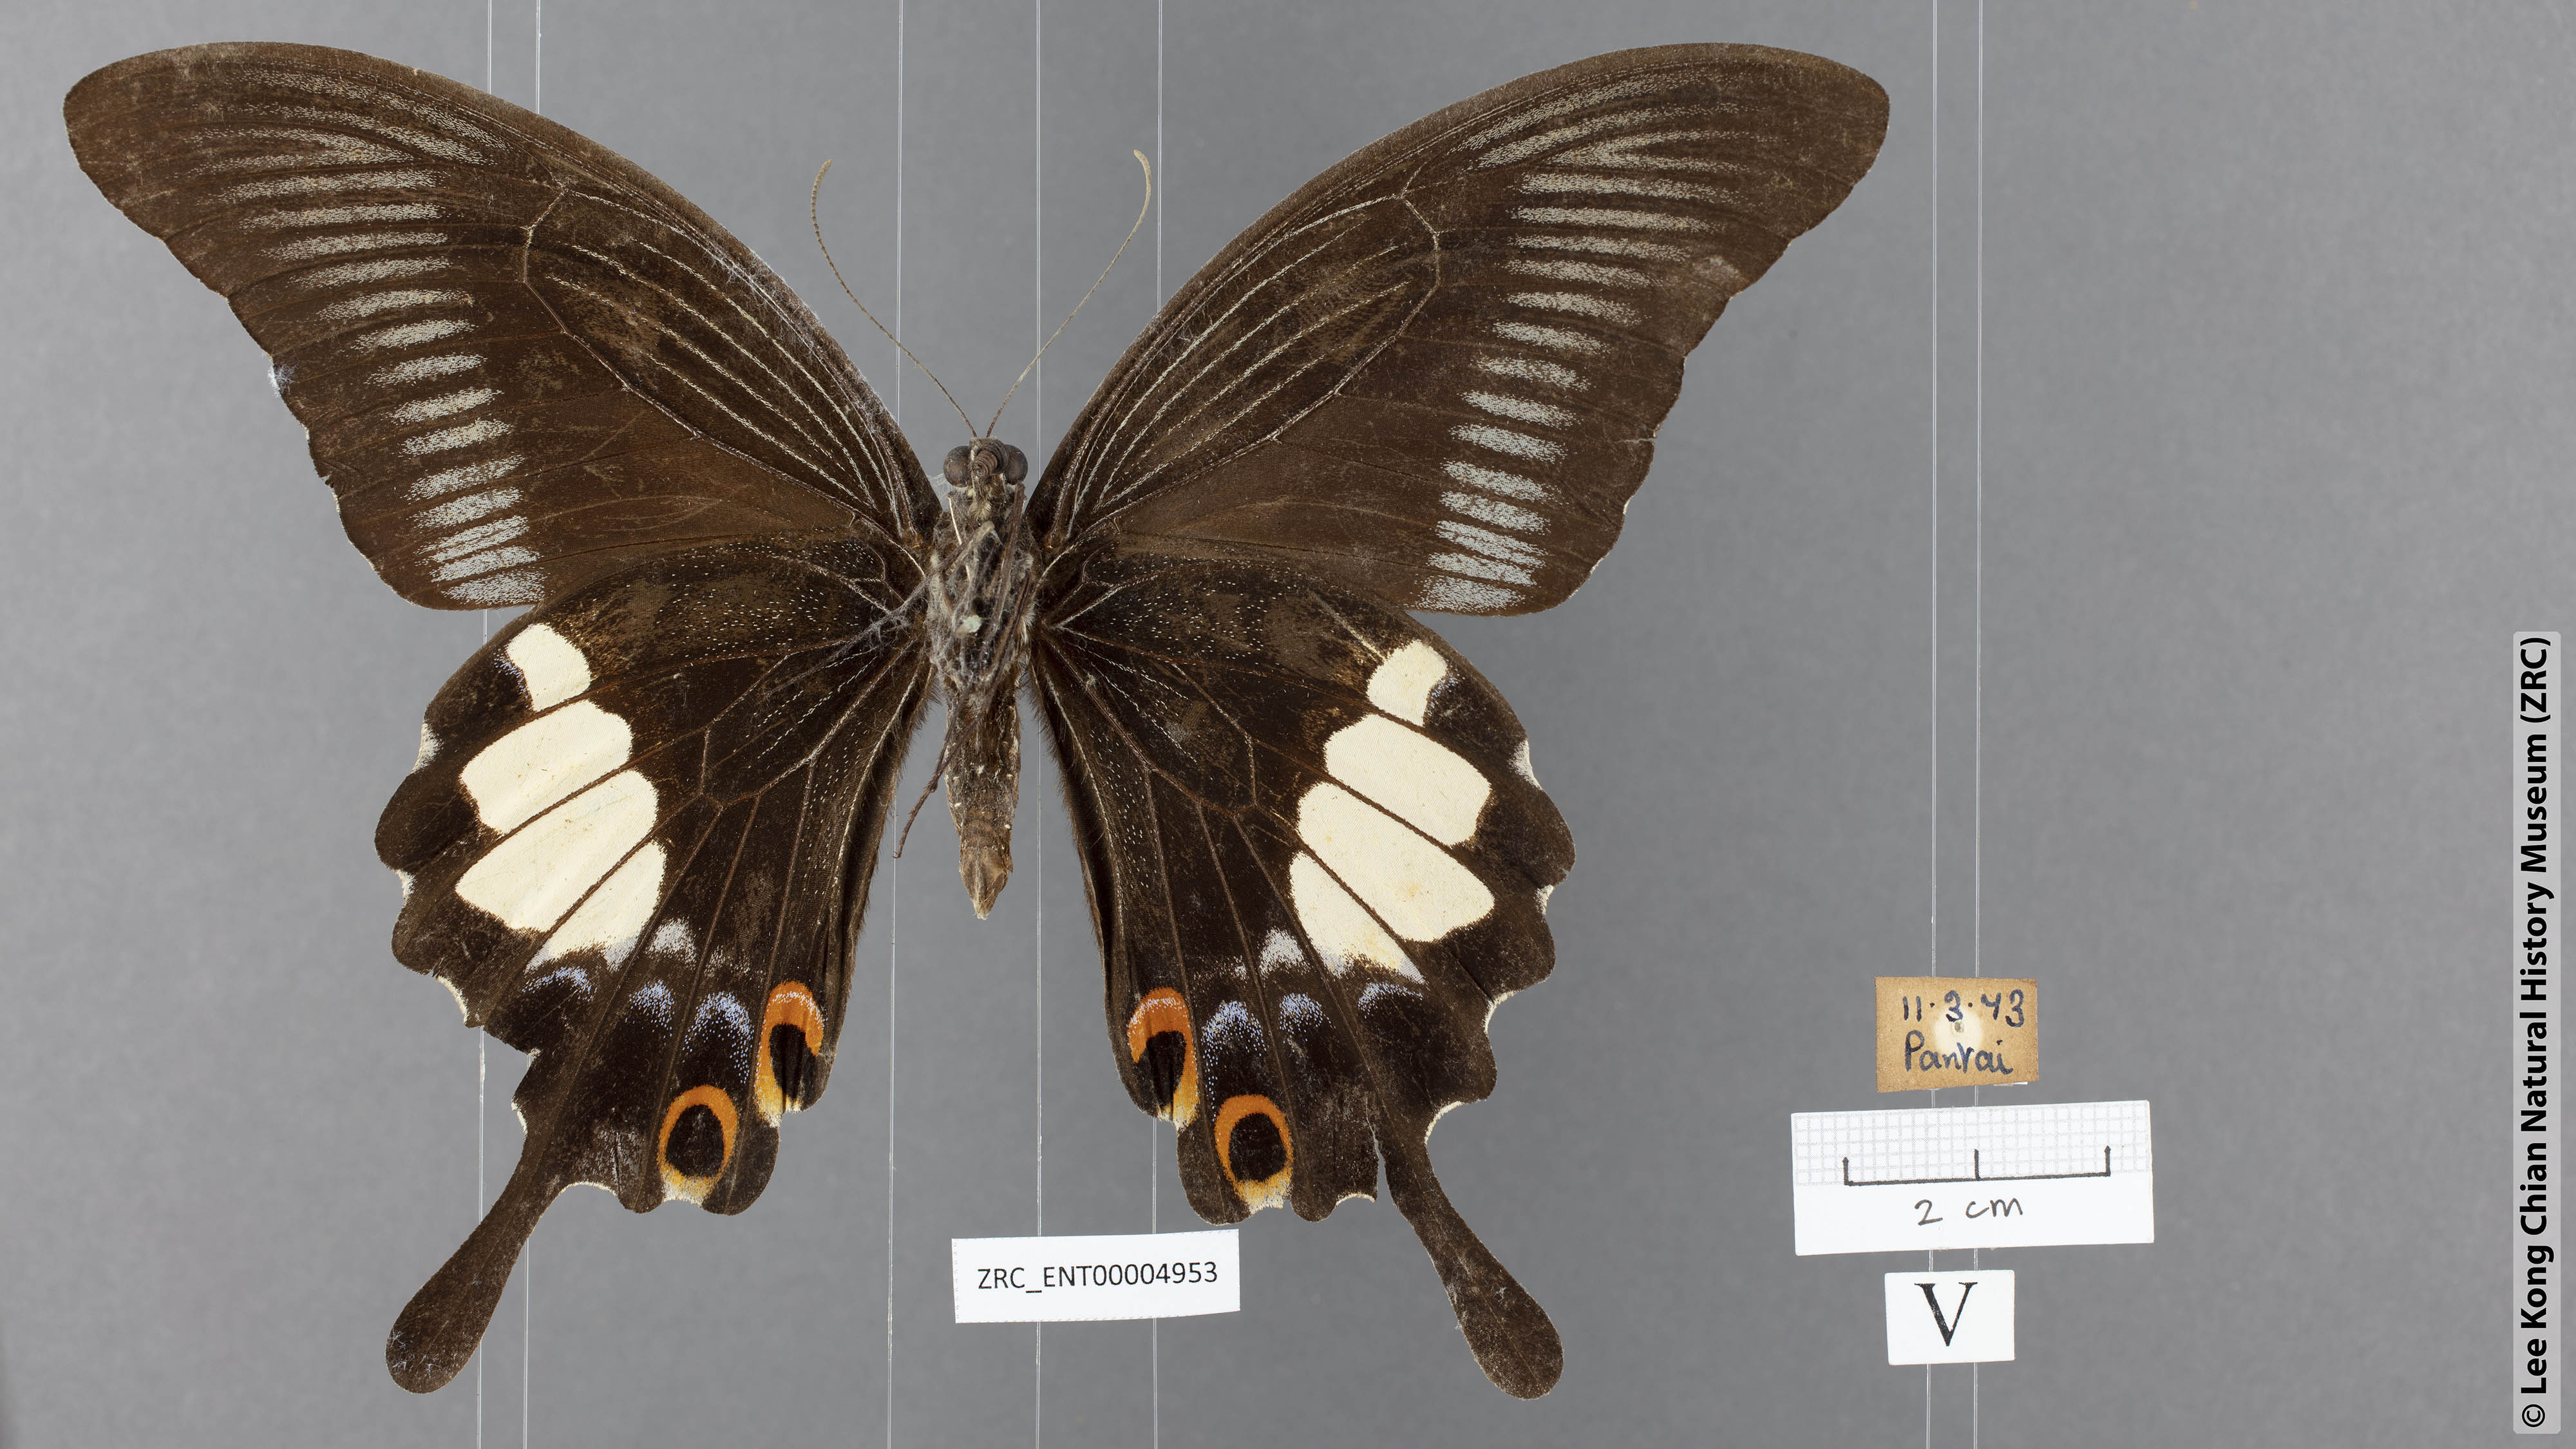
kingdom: Animalia
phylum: Arthropoda
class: Insecta
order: Lepidoptera
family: Papilionidae
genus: Papilio
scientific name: Papilio iswara
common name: Great helen swallowtail
